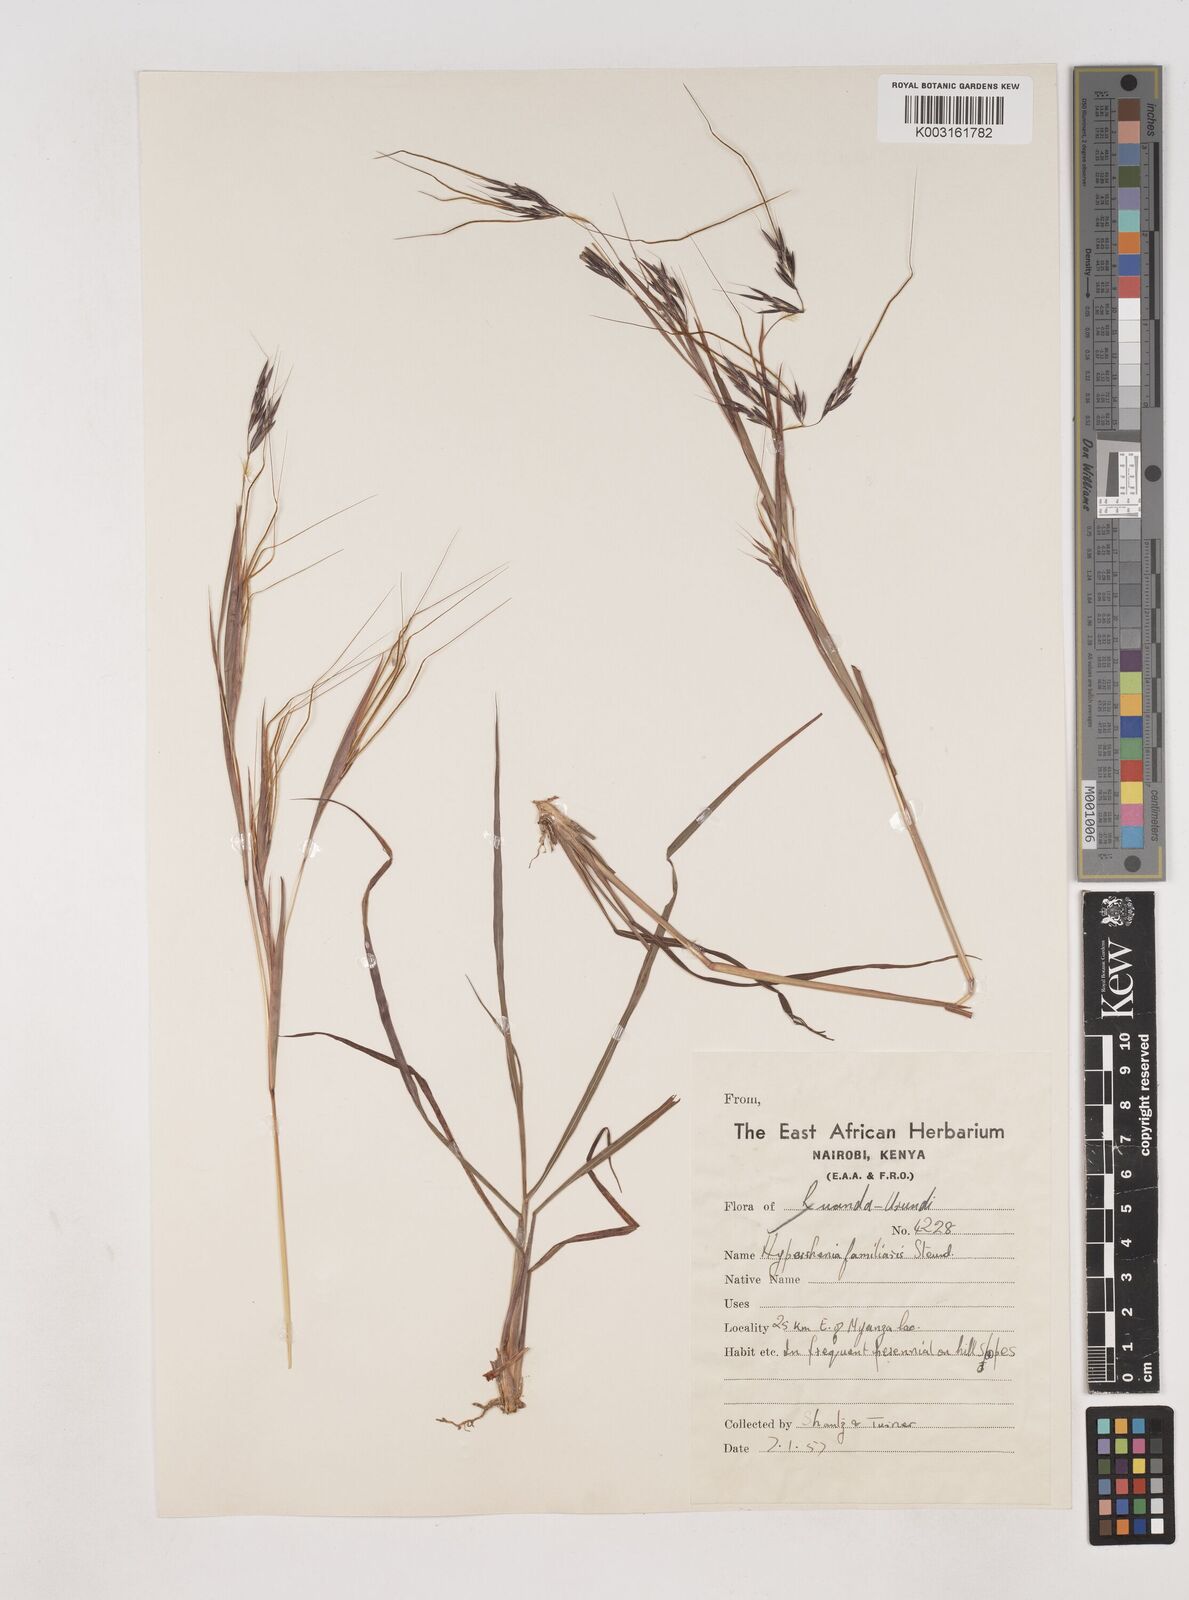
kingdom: Plantae
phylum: Tracheophyta
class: Liliopsida
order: Poales
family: Poaceae
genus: Hyparrhenia
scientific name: Hyparrhenia familiaris
